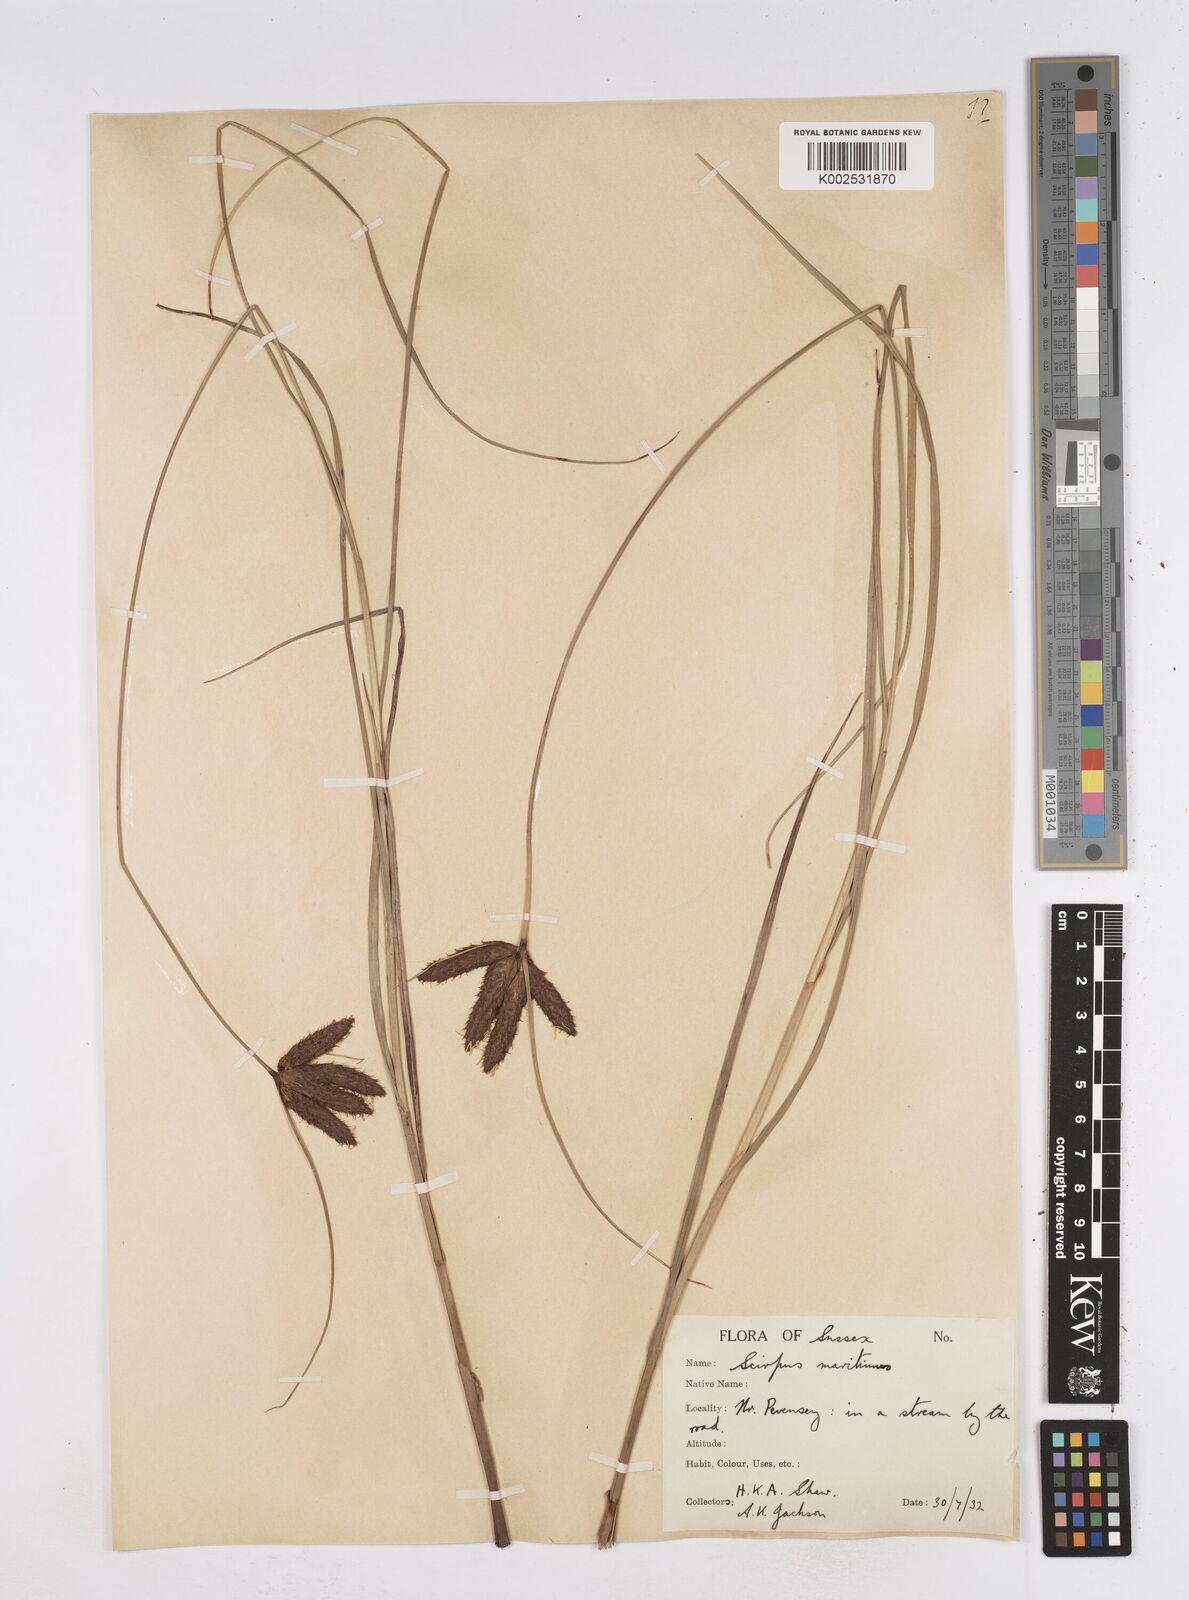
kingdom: Plantae
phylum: Tracheophyta
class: Liliopsida
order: Poales
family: Cyperaceae
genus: Bolboschoenus
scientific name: Bolboschoenus maritimus
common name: Sea club-rush
